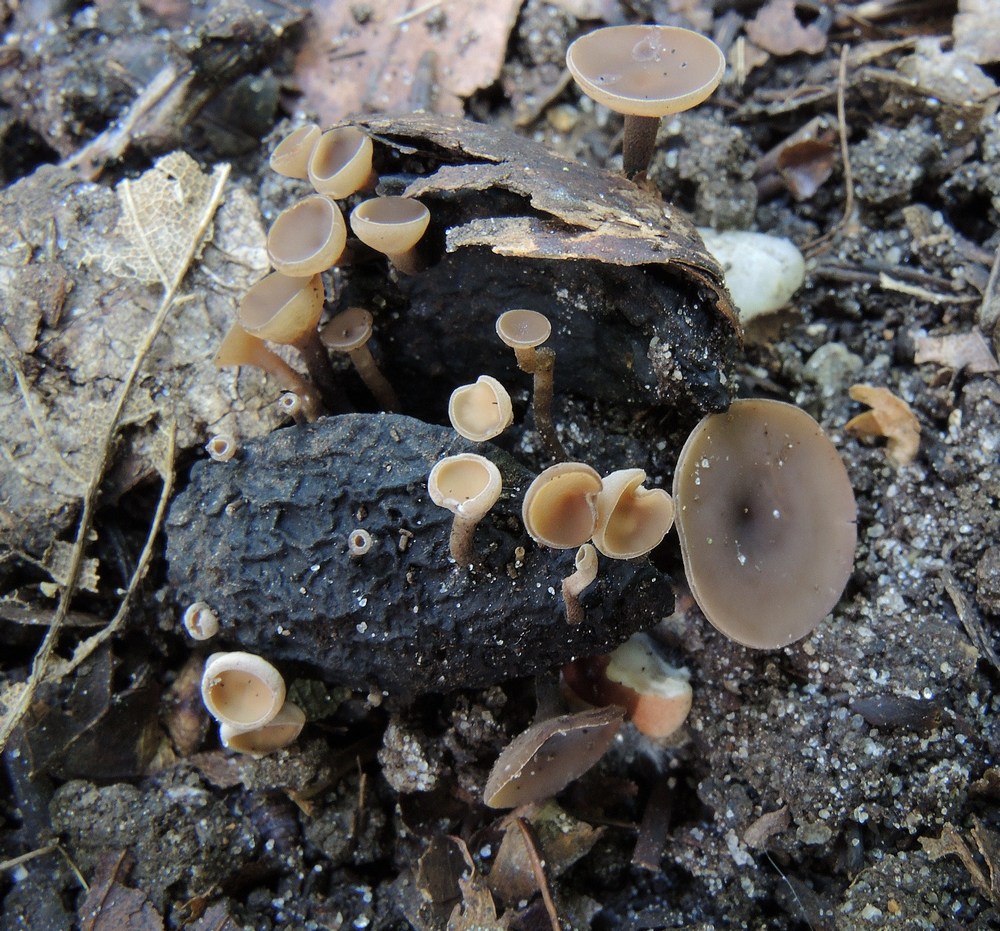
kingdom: Fungi
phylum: Ascomycota
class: Leotiomycetes
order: Helotiales
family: Sclerotiniaceae
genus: Ciboria
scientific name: Ciboria batschiana
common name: agern-knoldskive
